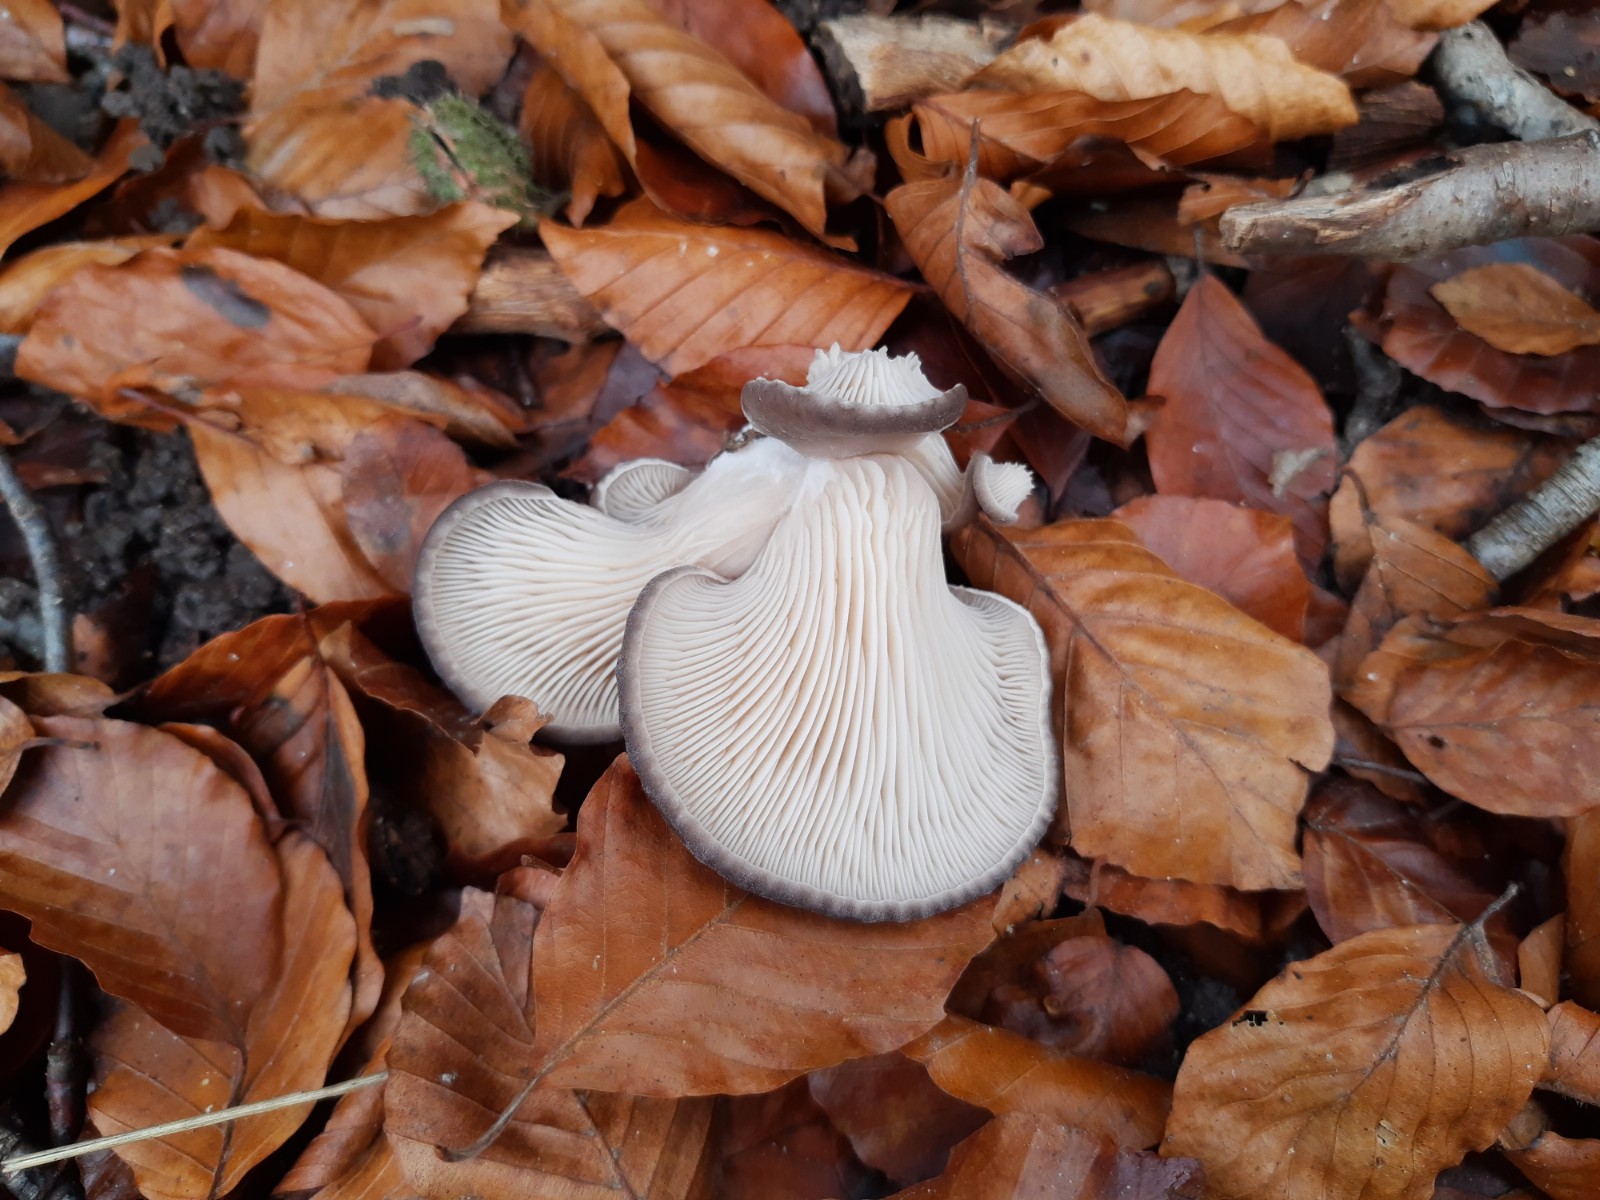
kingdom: Fungi
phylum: Basidiomycota
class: Agaricomycetes
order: Agaricales
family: Pleurotaceae
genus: Pleurotus
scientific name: Pleurotus ostreatus
